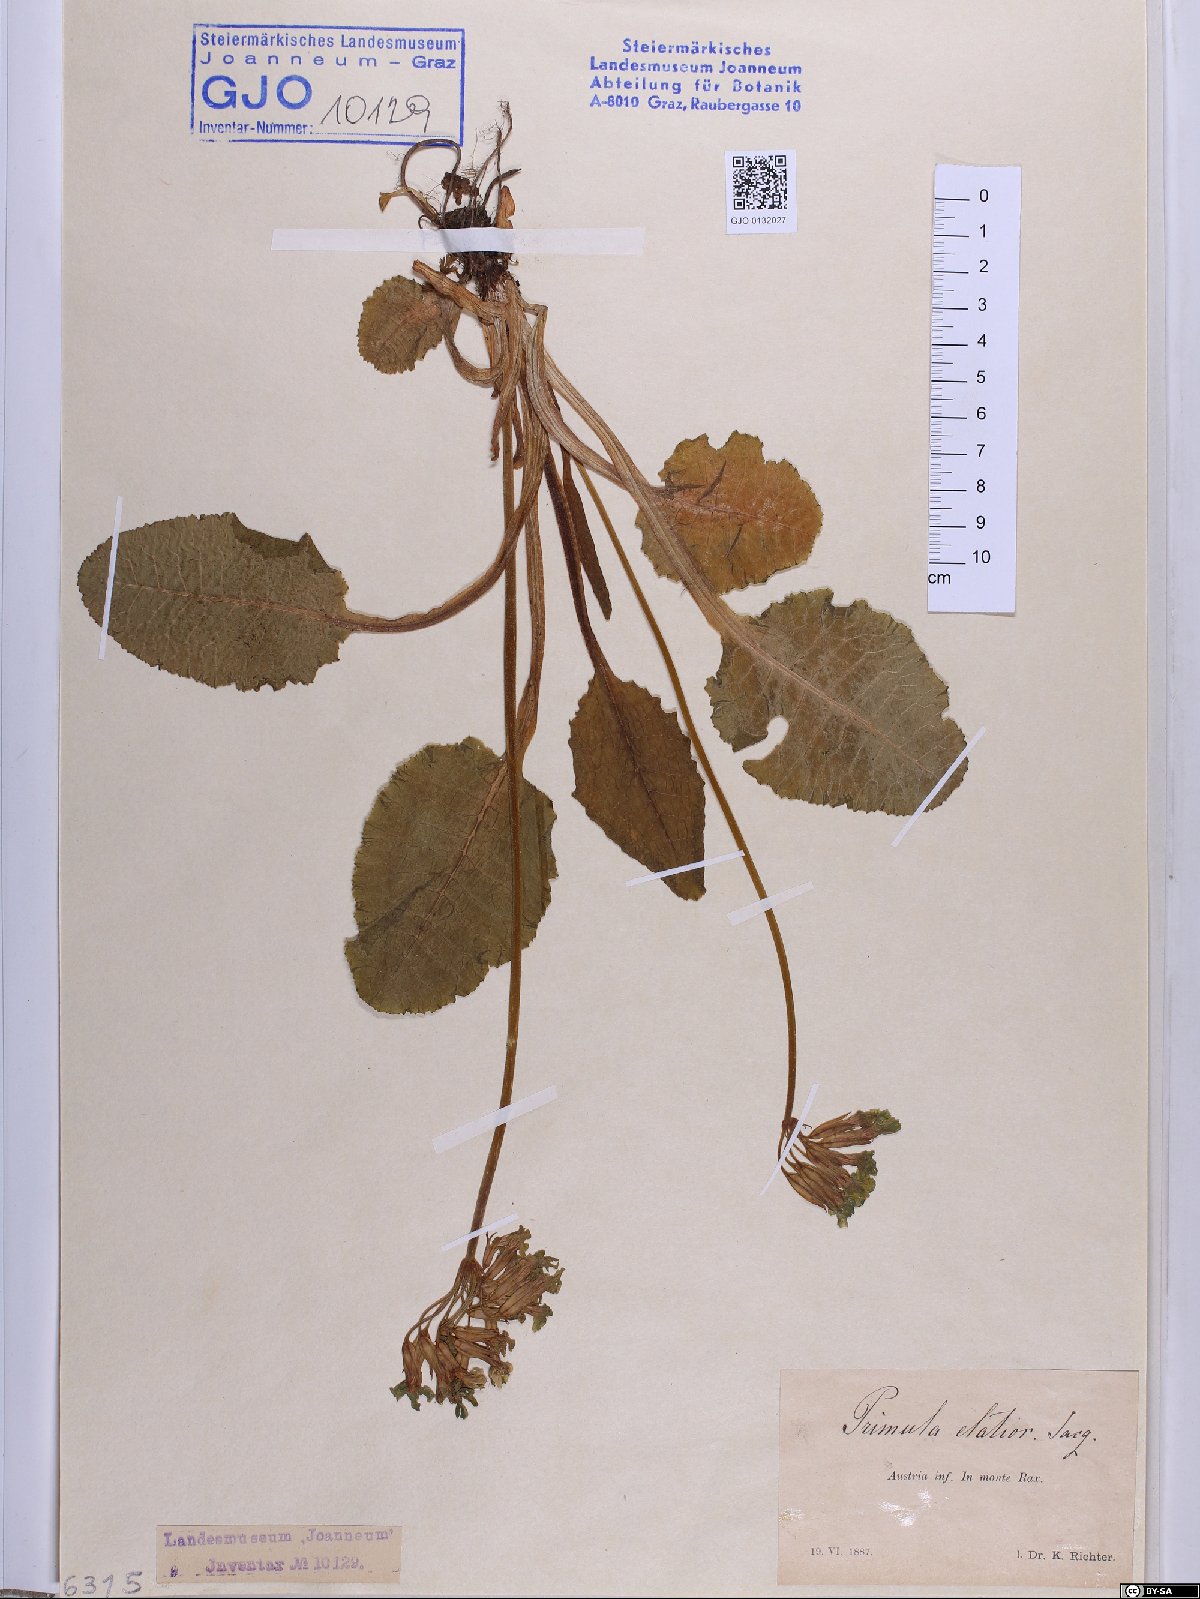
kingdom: Plantae
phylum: Tracheophyta
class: Magnoliopsida
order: Ericales
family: Primulaceae
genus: Primula
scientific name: Primula elatior
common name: Oxlip
